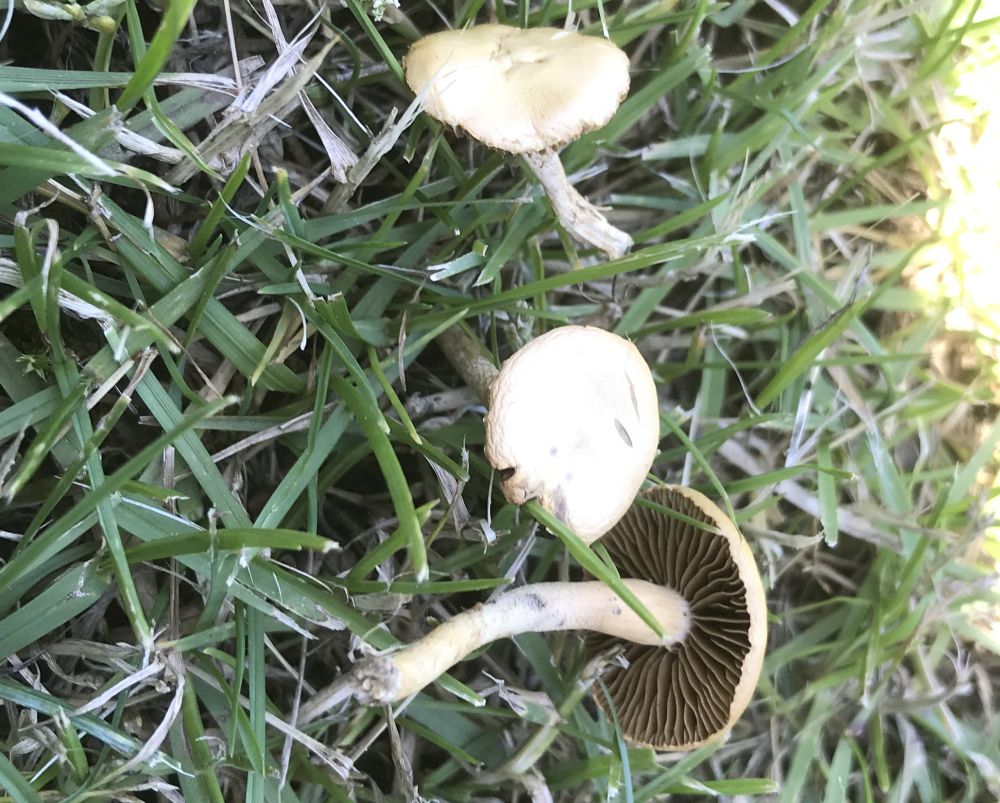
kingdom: Fungi
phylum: Basidiomycota
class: Agaricomycetes
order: Agaricales
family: Strophariaceae
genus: Agrocybe
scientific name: Agrocybe pediades
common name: almindelig agerhat
